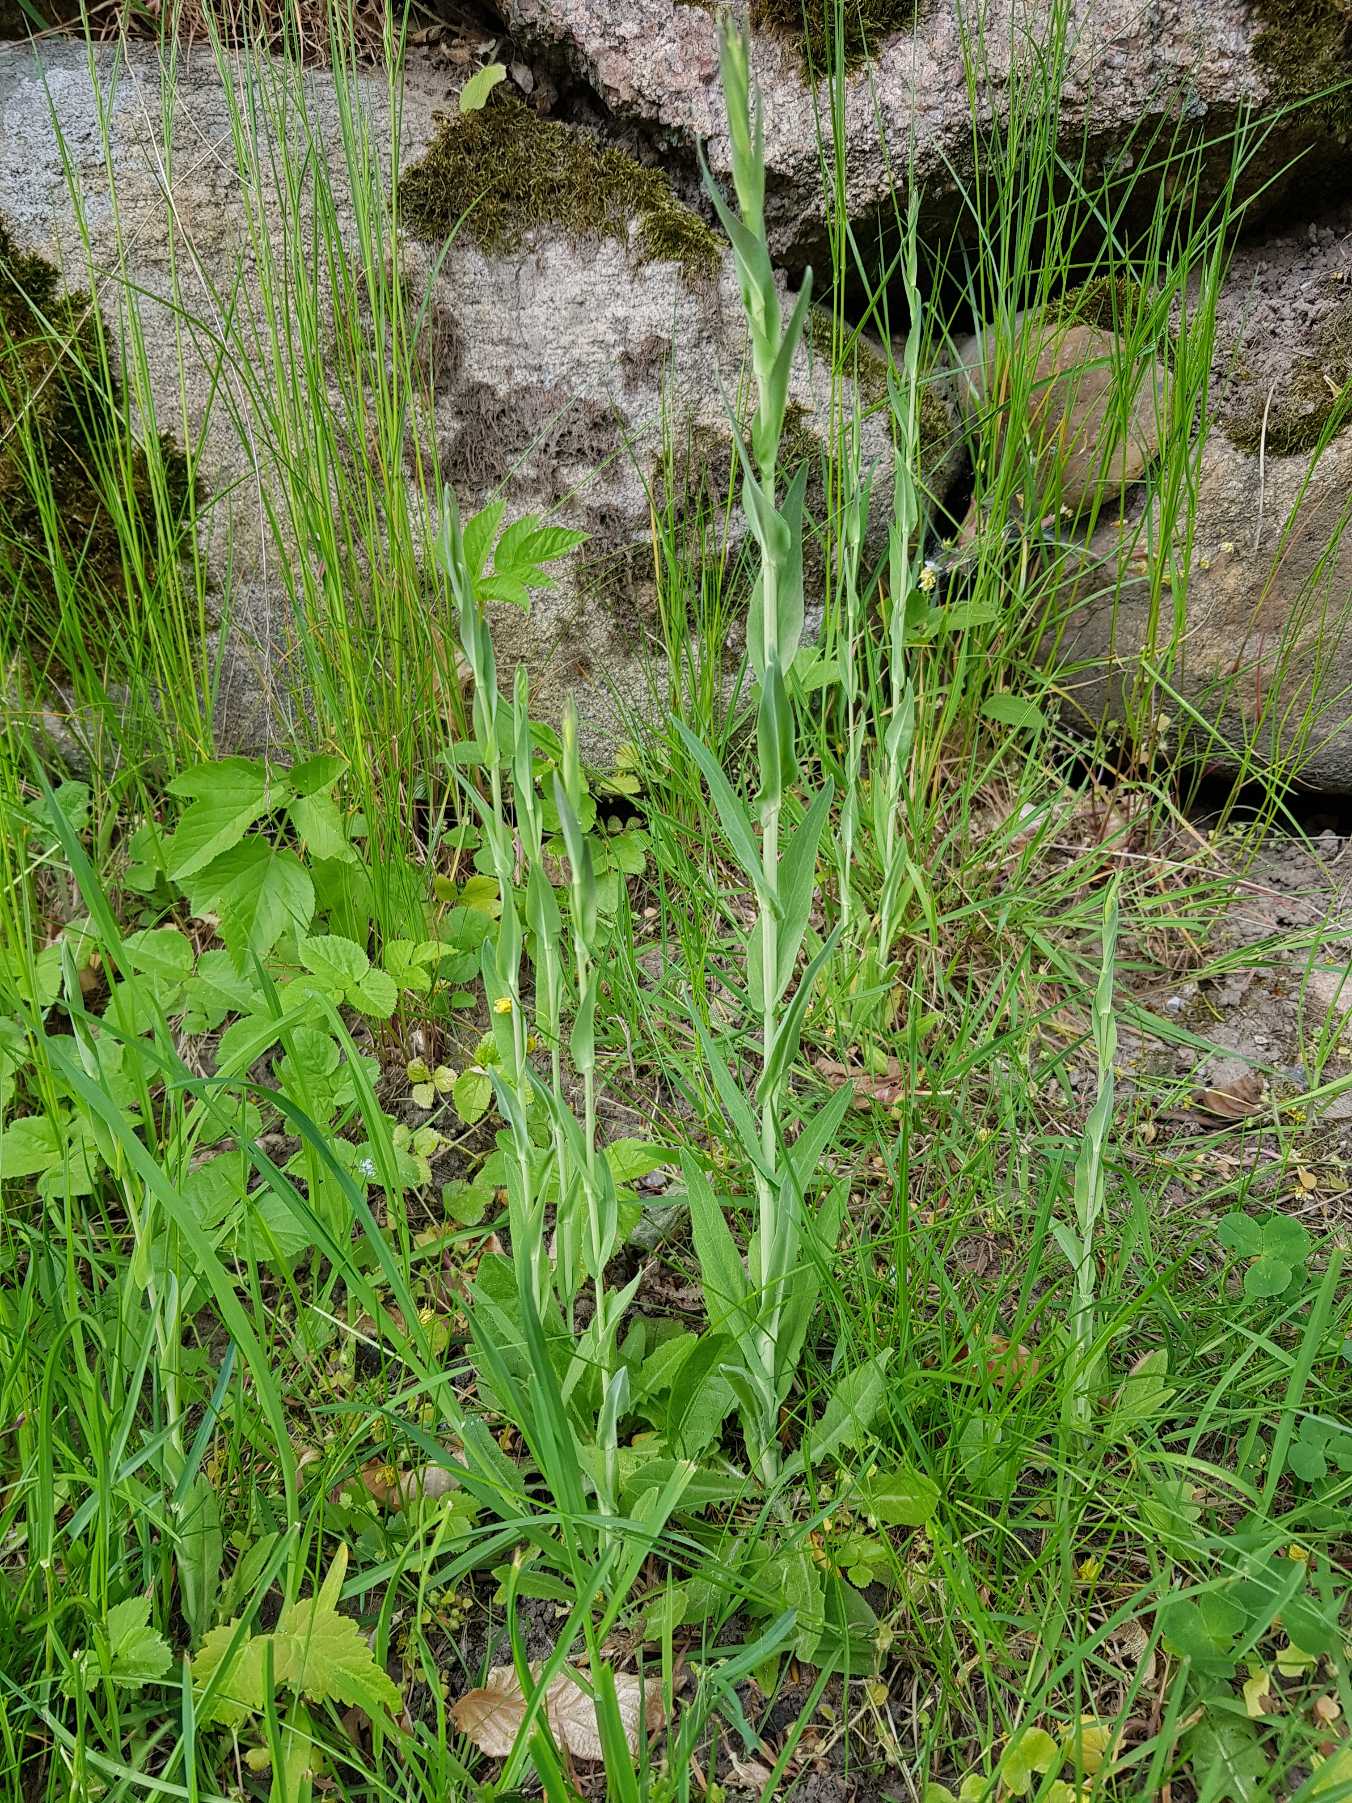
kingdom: Plantae
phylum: Tracheophyta
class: Magnoliopsida
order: Brassicales
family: Brassicaceae
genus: Turritis
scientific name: Turritis glabra
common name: Tårnurt
